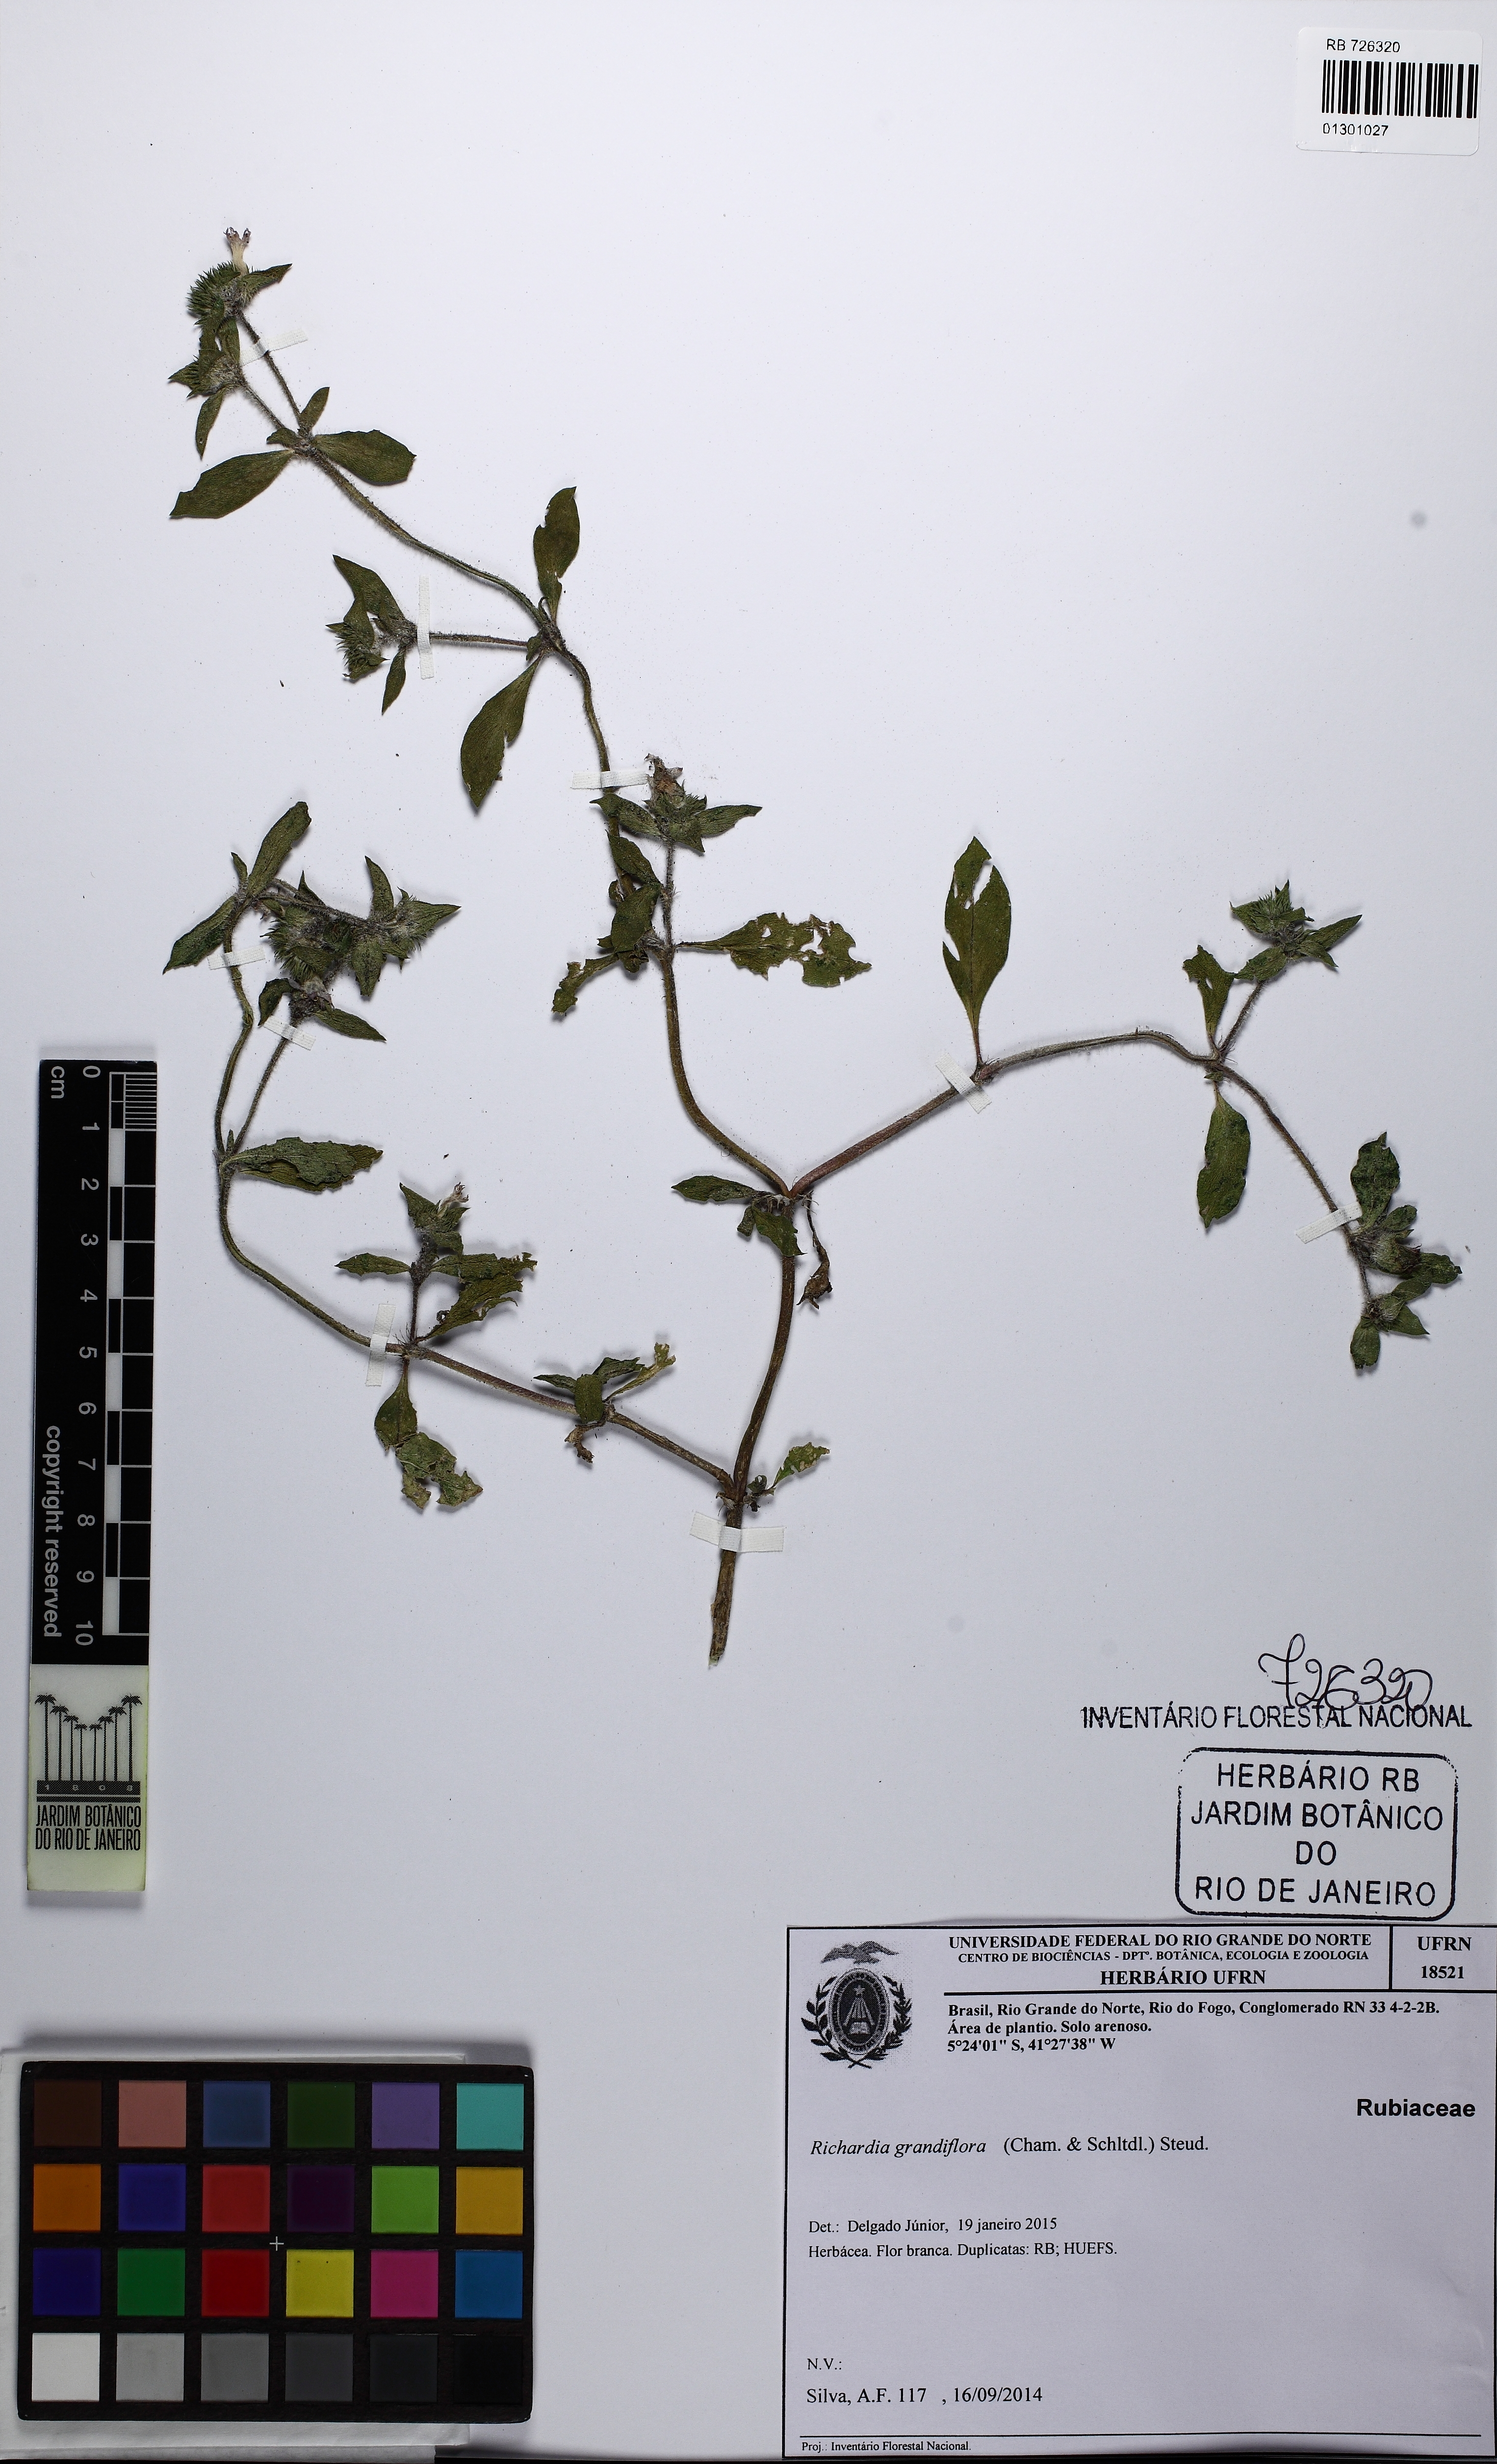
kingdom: Plantae
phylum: Tracheophyta
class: Magnoliopsida
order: Gentianales
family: Rubiaceae
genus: Richardia
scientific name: Richardia grandiflora
